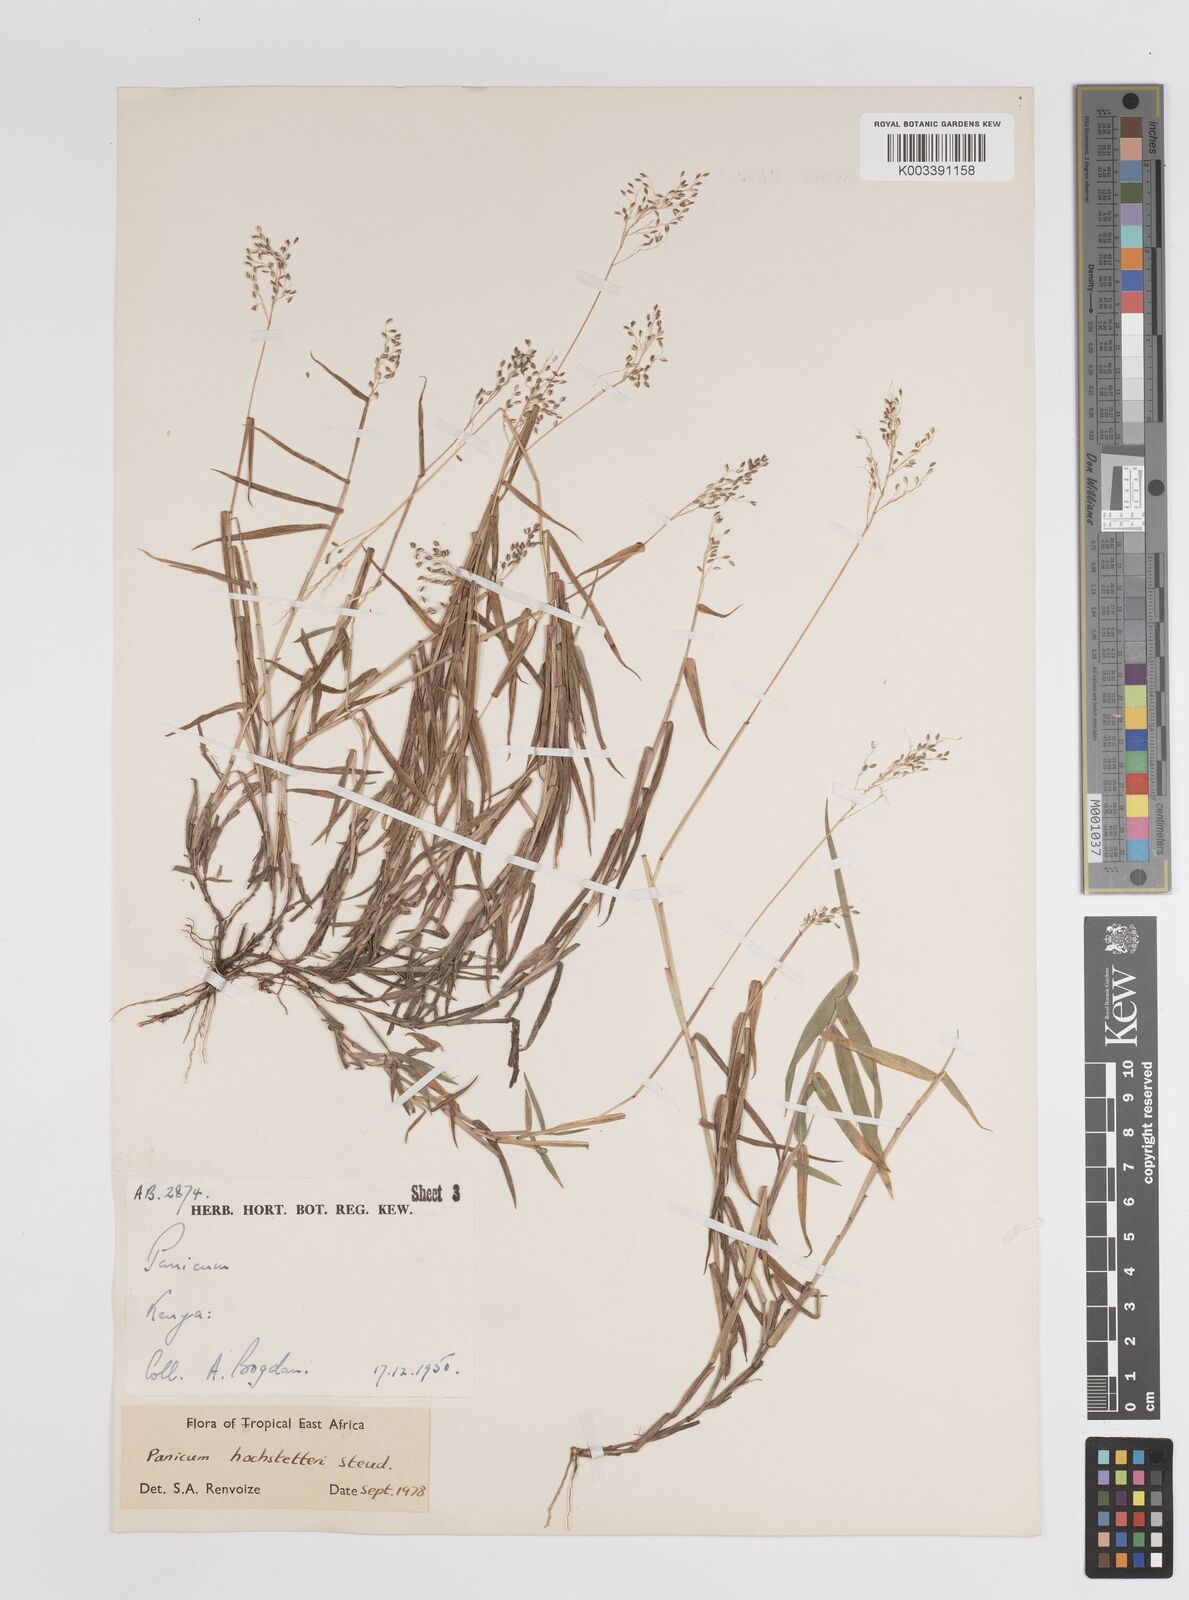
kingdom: Plantae
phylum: Tracheophyta
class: Liliopsida
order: Poales
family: Poaceae
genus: Panicum
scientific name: Panicum hochstetteri
